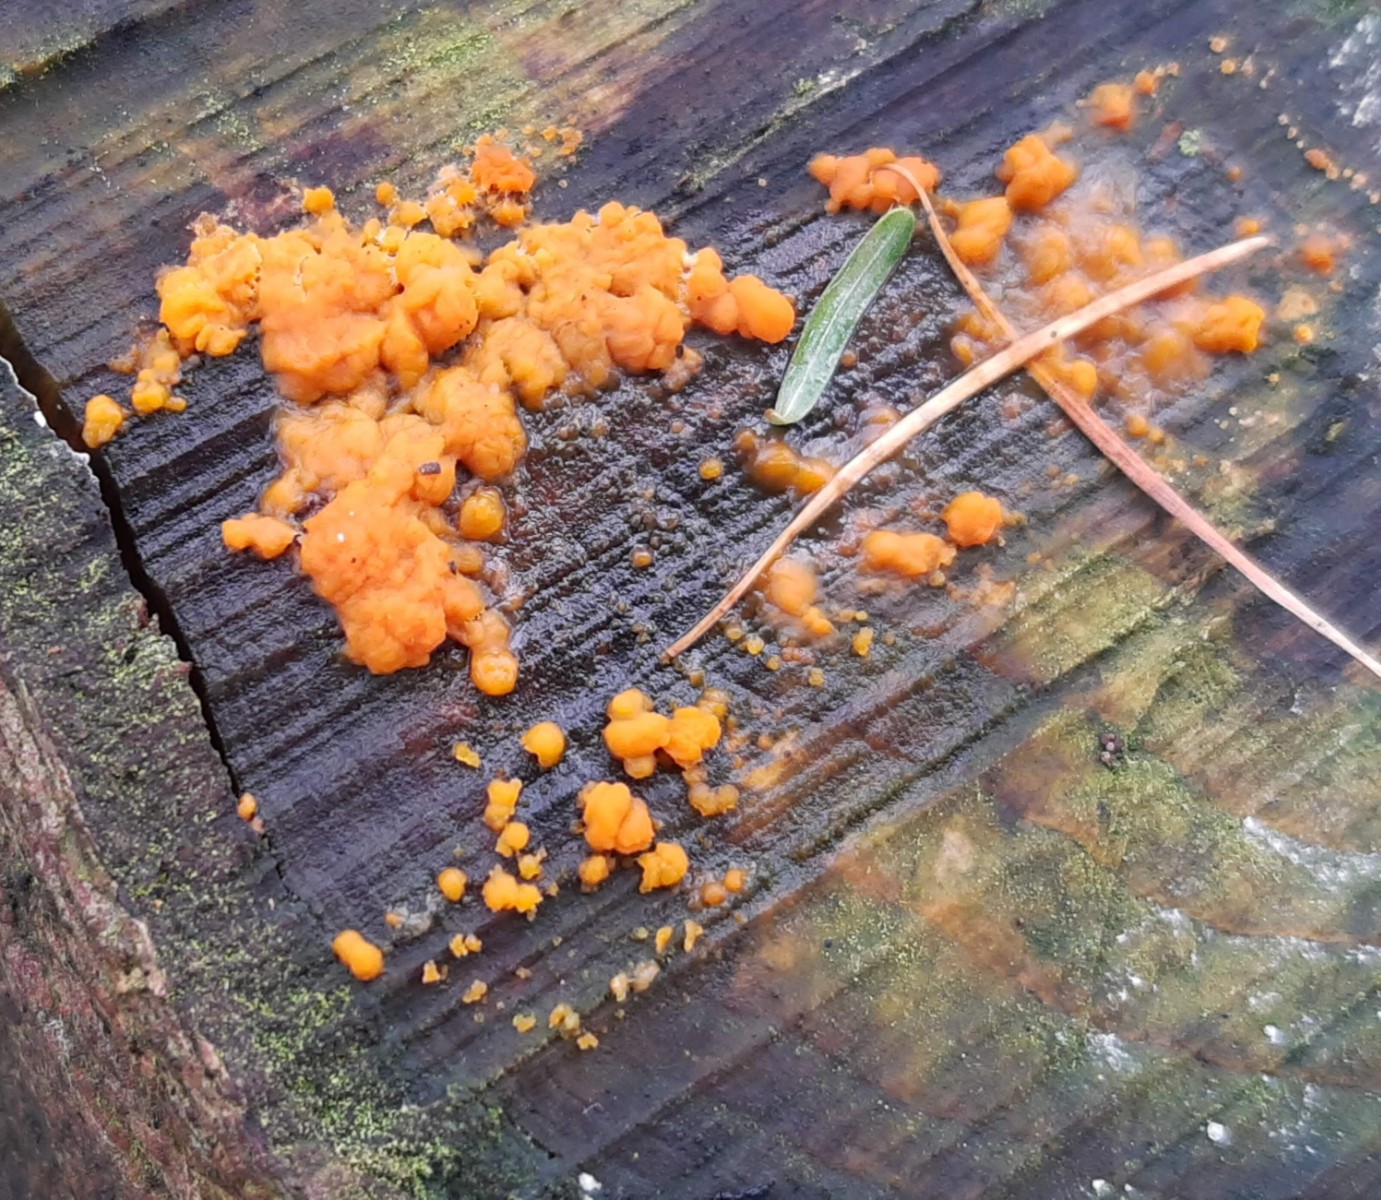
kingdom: Fungi
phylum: Basidiomycota
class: Dacrymycetes
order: Dacrymycetales
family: Dacrymycetaceae
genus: Dacrymyces
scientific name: Dacrymyces stillatus
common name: almindelig tåresvamp
